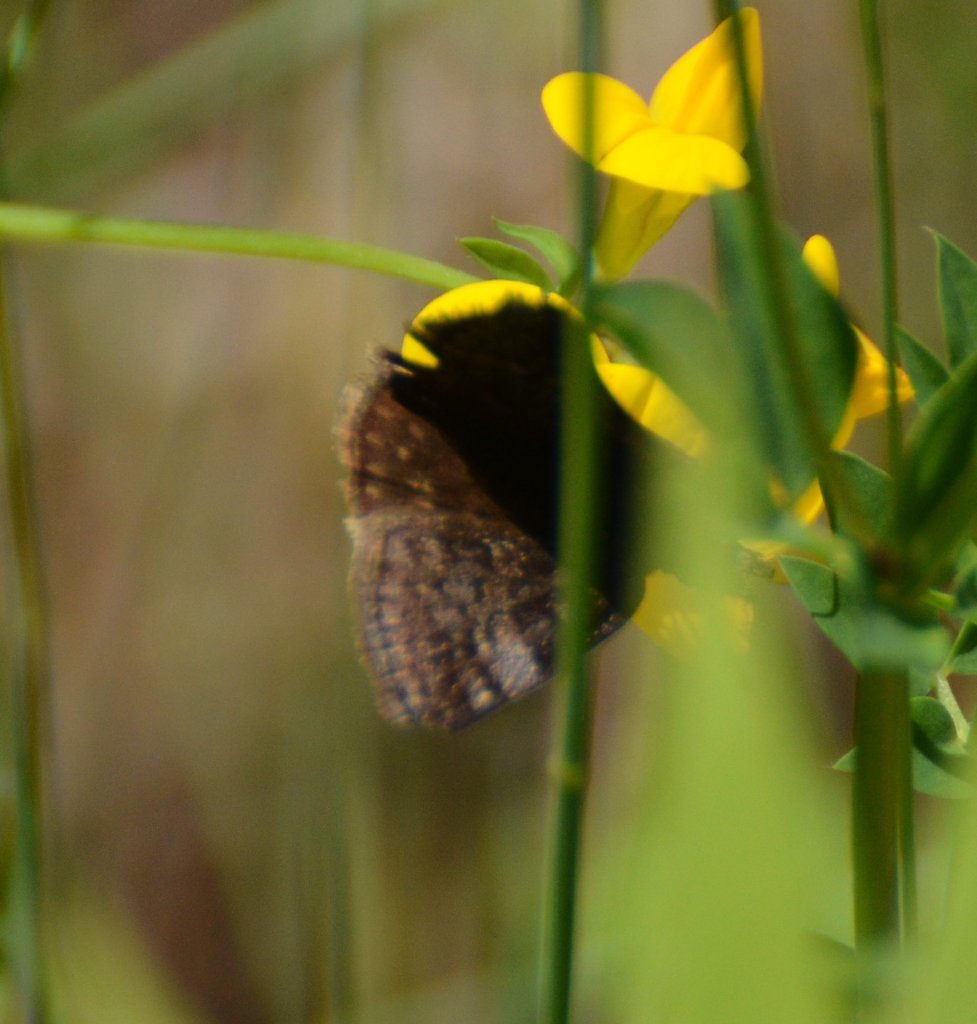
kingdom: Animalia
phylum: Arthropoda
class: Insecta
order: Lepidoptera
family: Hesperiidae
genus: Erynnis
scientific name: Erynnis icelus
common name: Dreamy Duskywing
